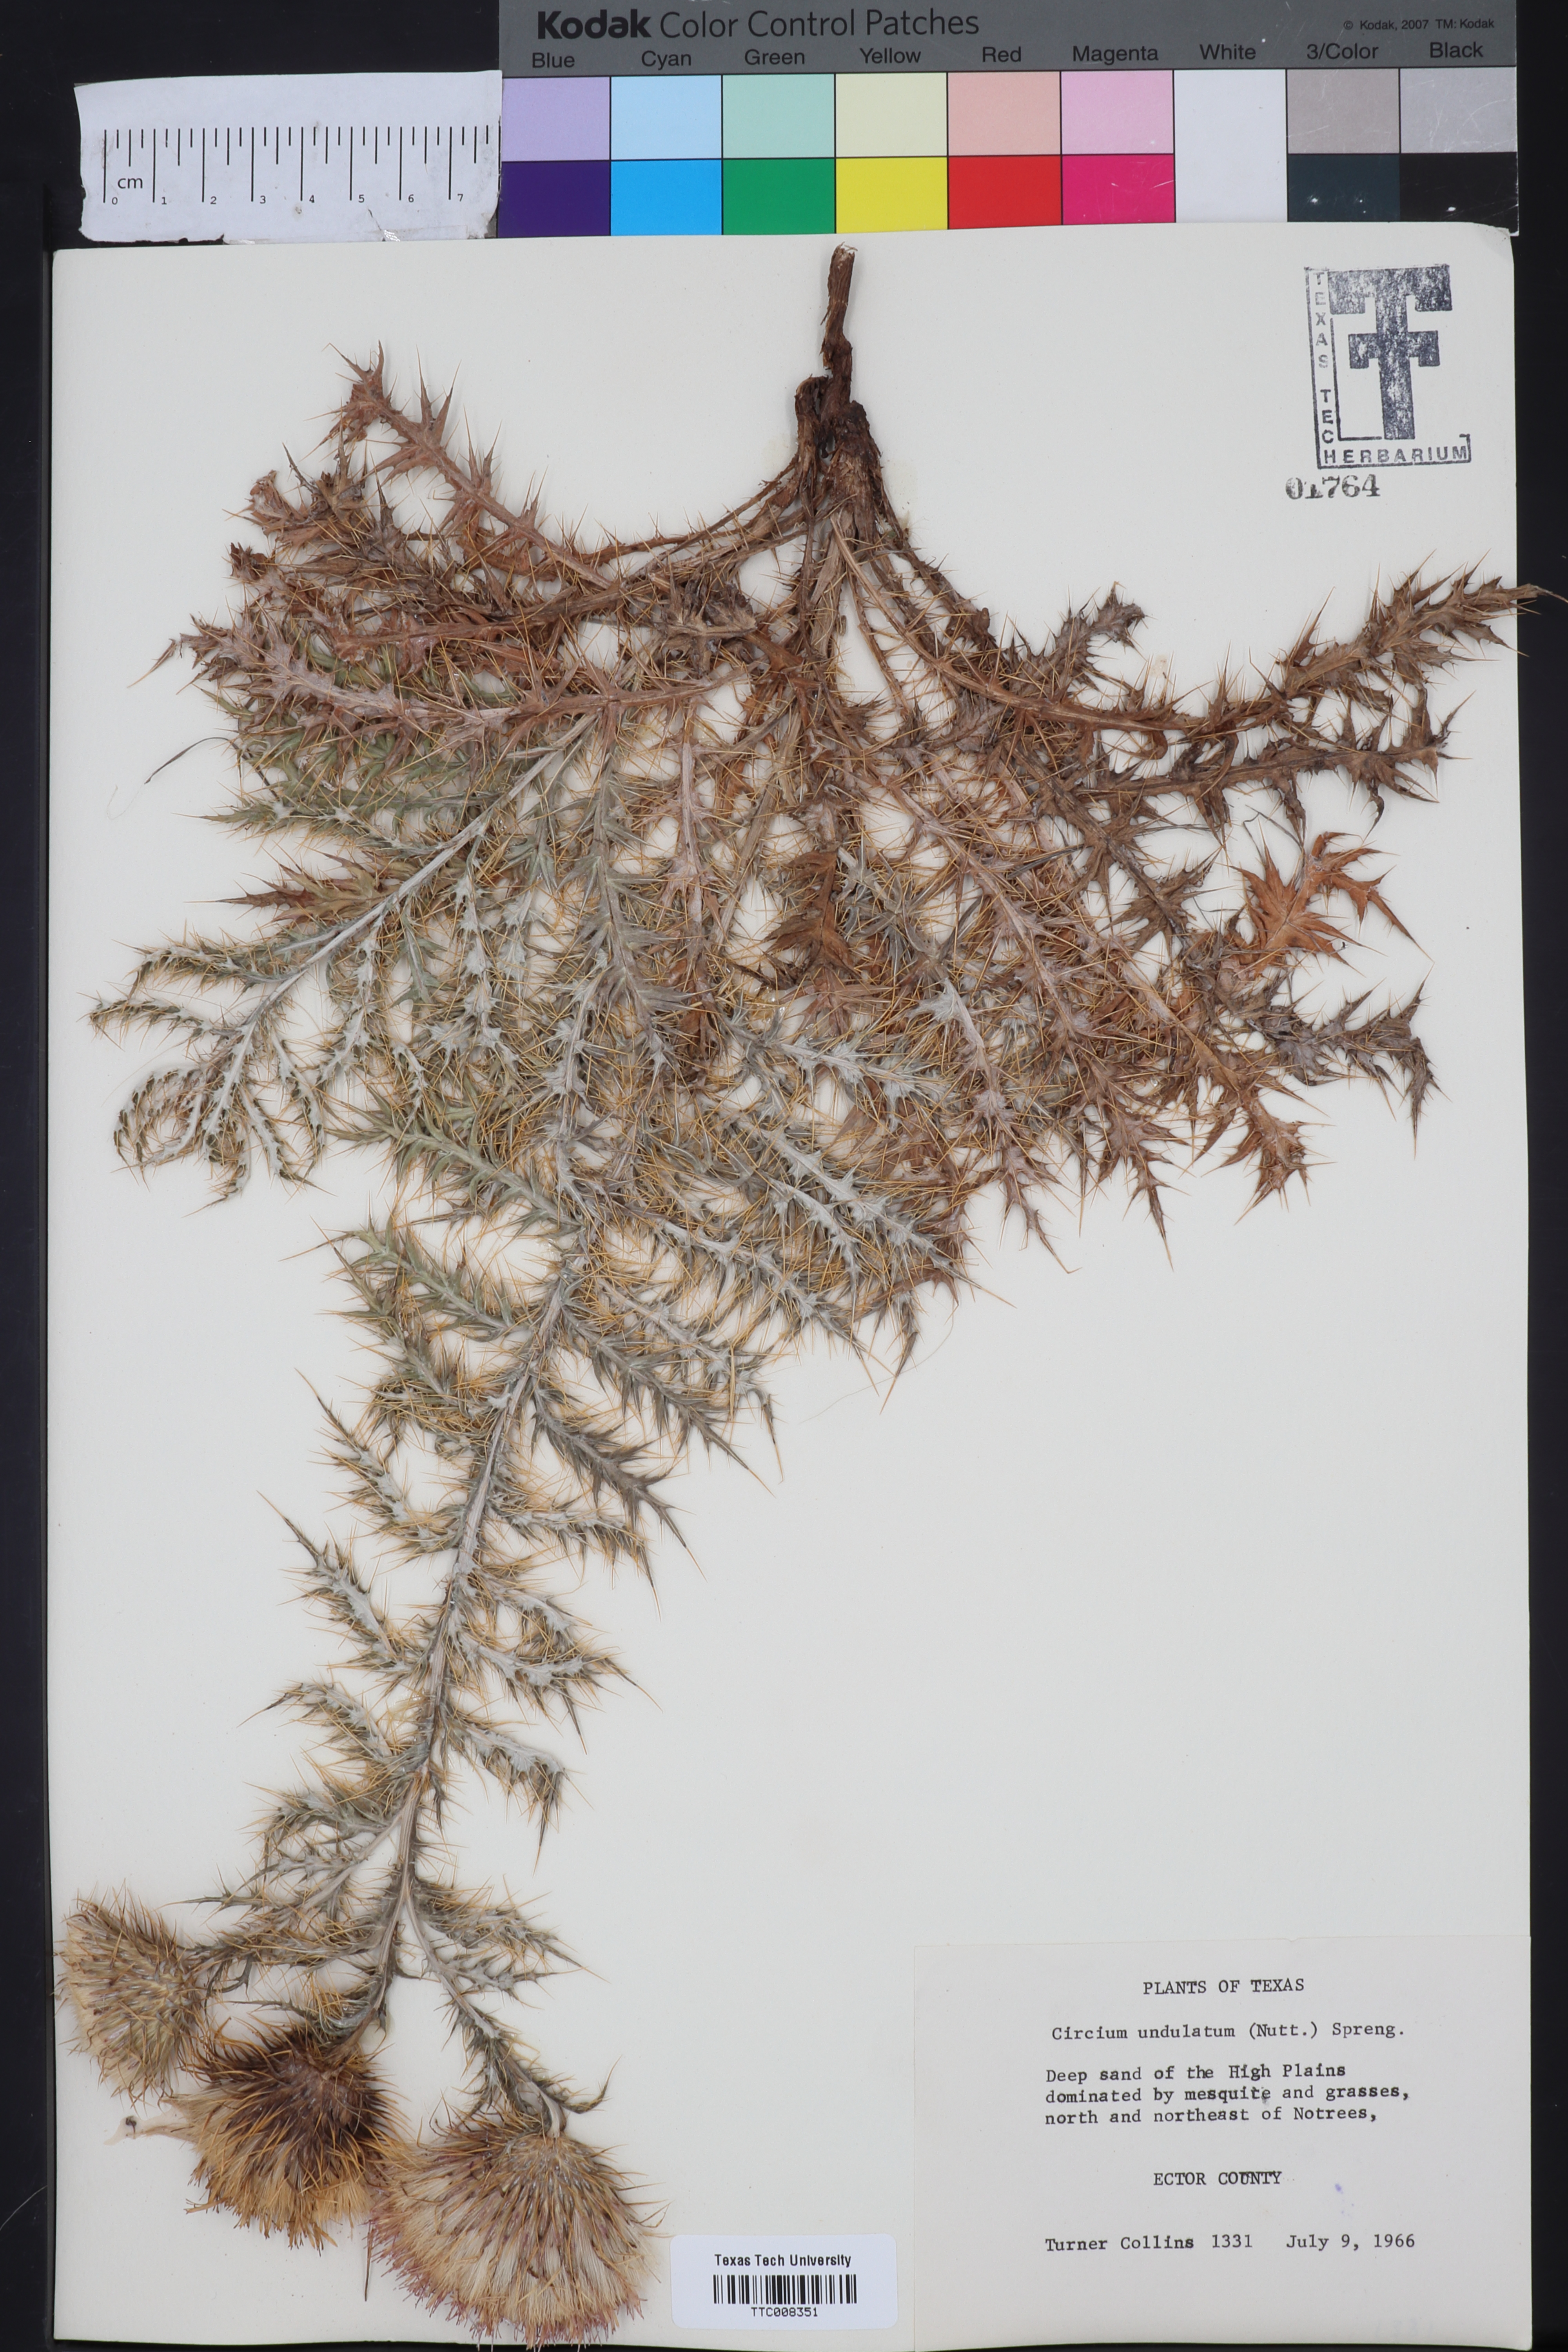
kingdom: Plantae
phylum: Tracheophyta
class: Magnoliopsida
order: Asterales
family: Asteraceae
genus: Cirsium
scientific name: Cirsium undulatum
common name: Pasture thistle
